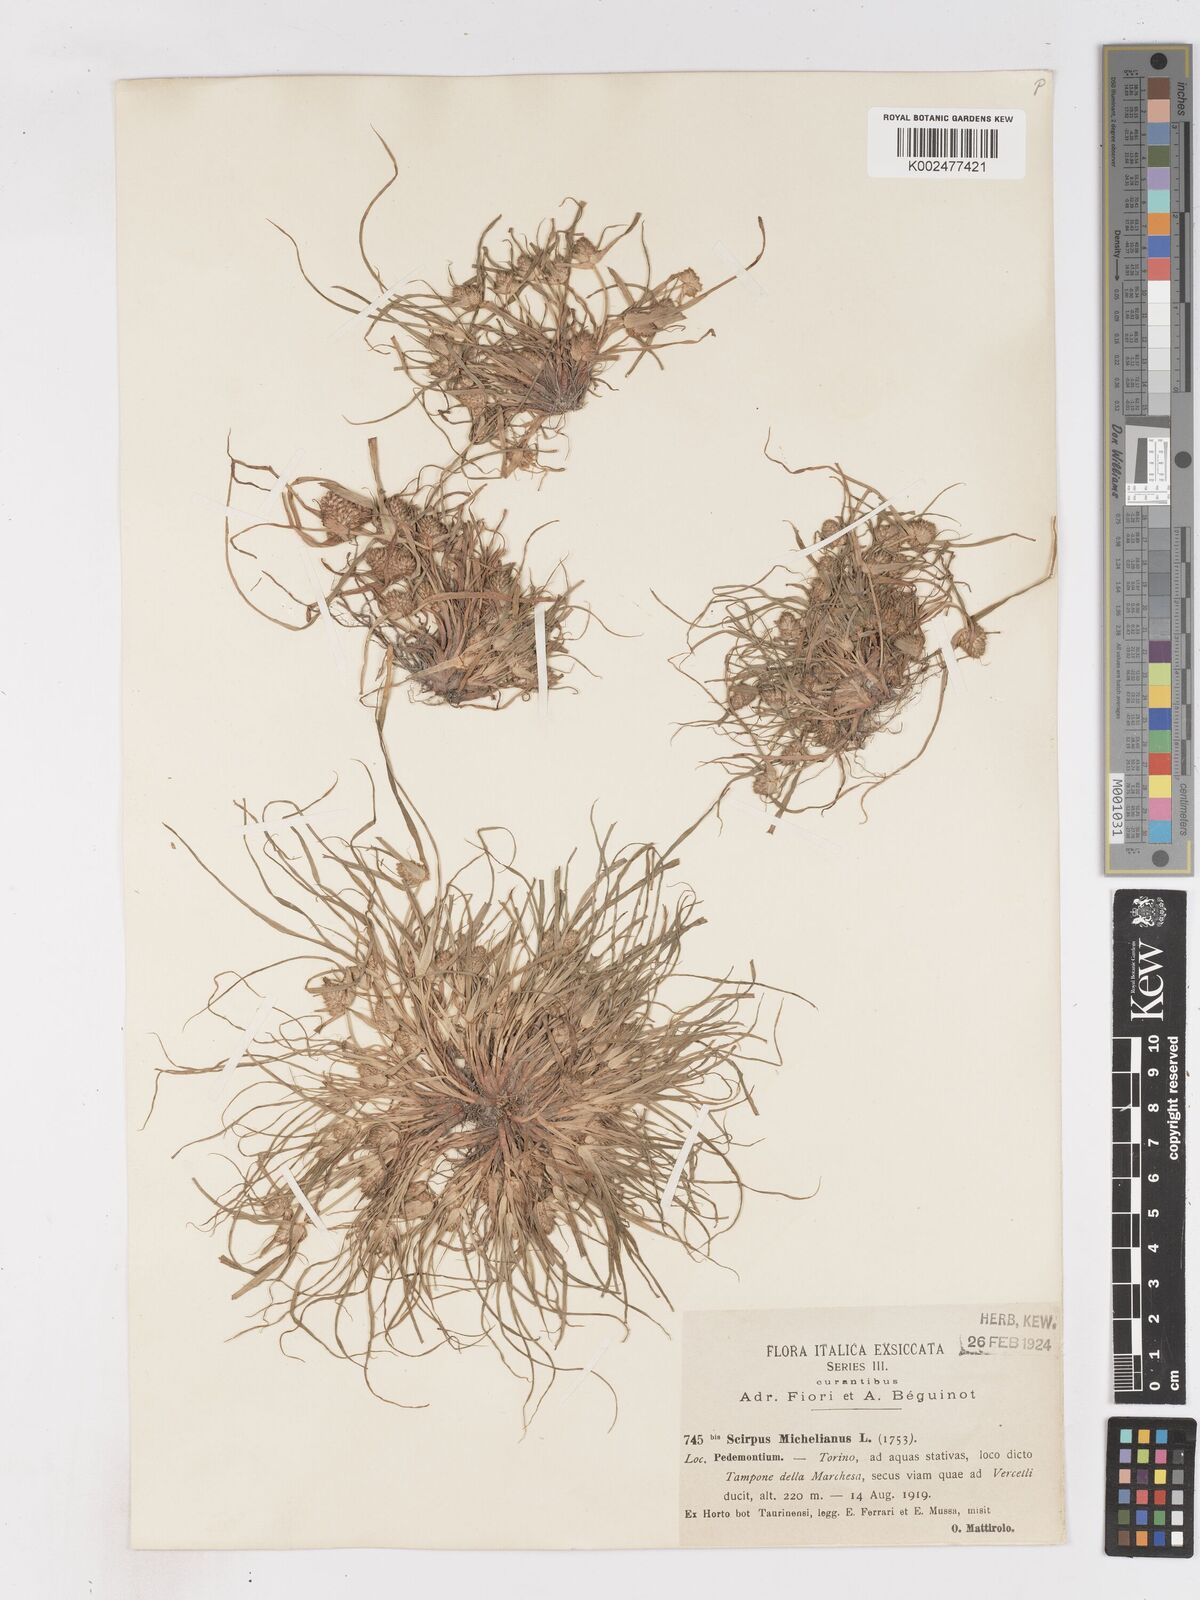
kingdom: Plantae
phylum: Tracheophyta
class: Liliopsida
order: Poales
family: Cyperaceae
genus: Cyperus
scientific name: Cyperus michelianus
